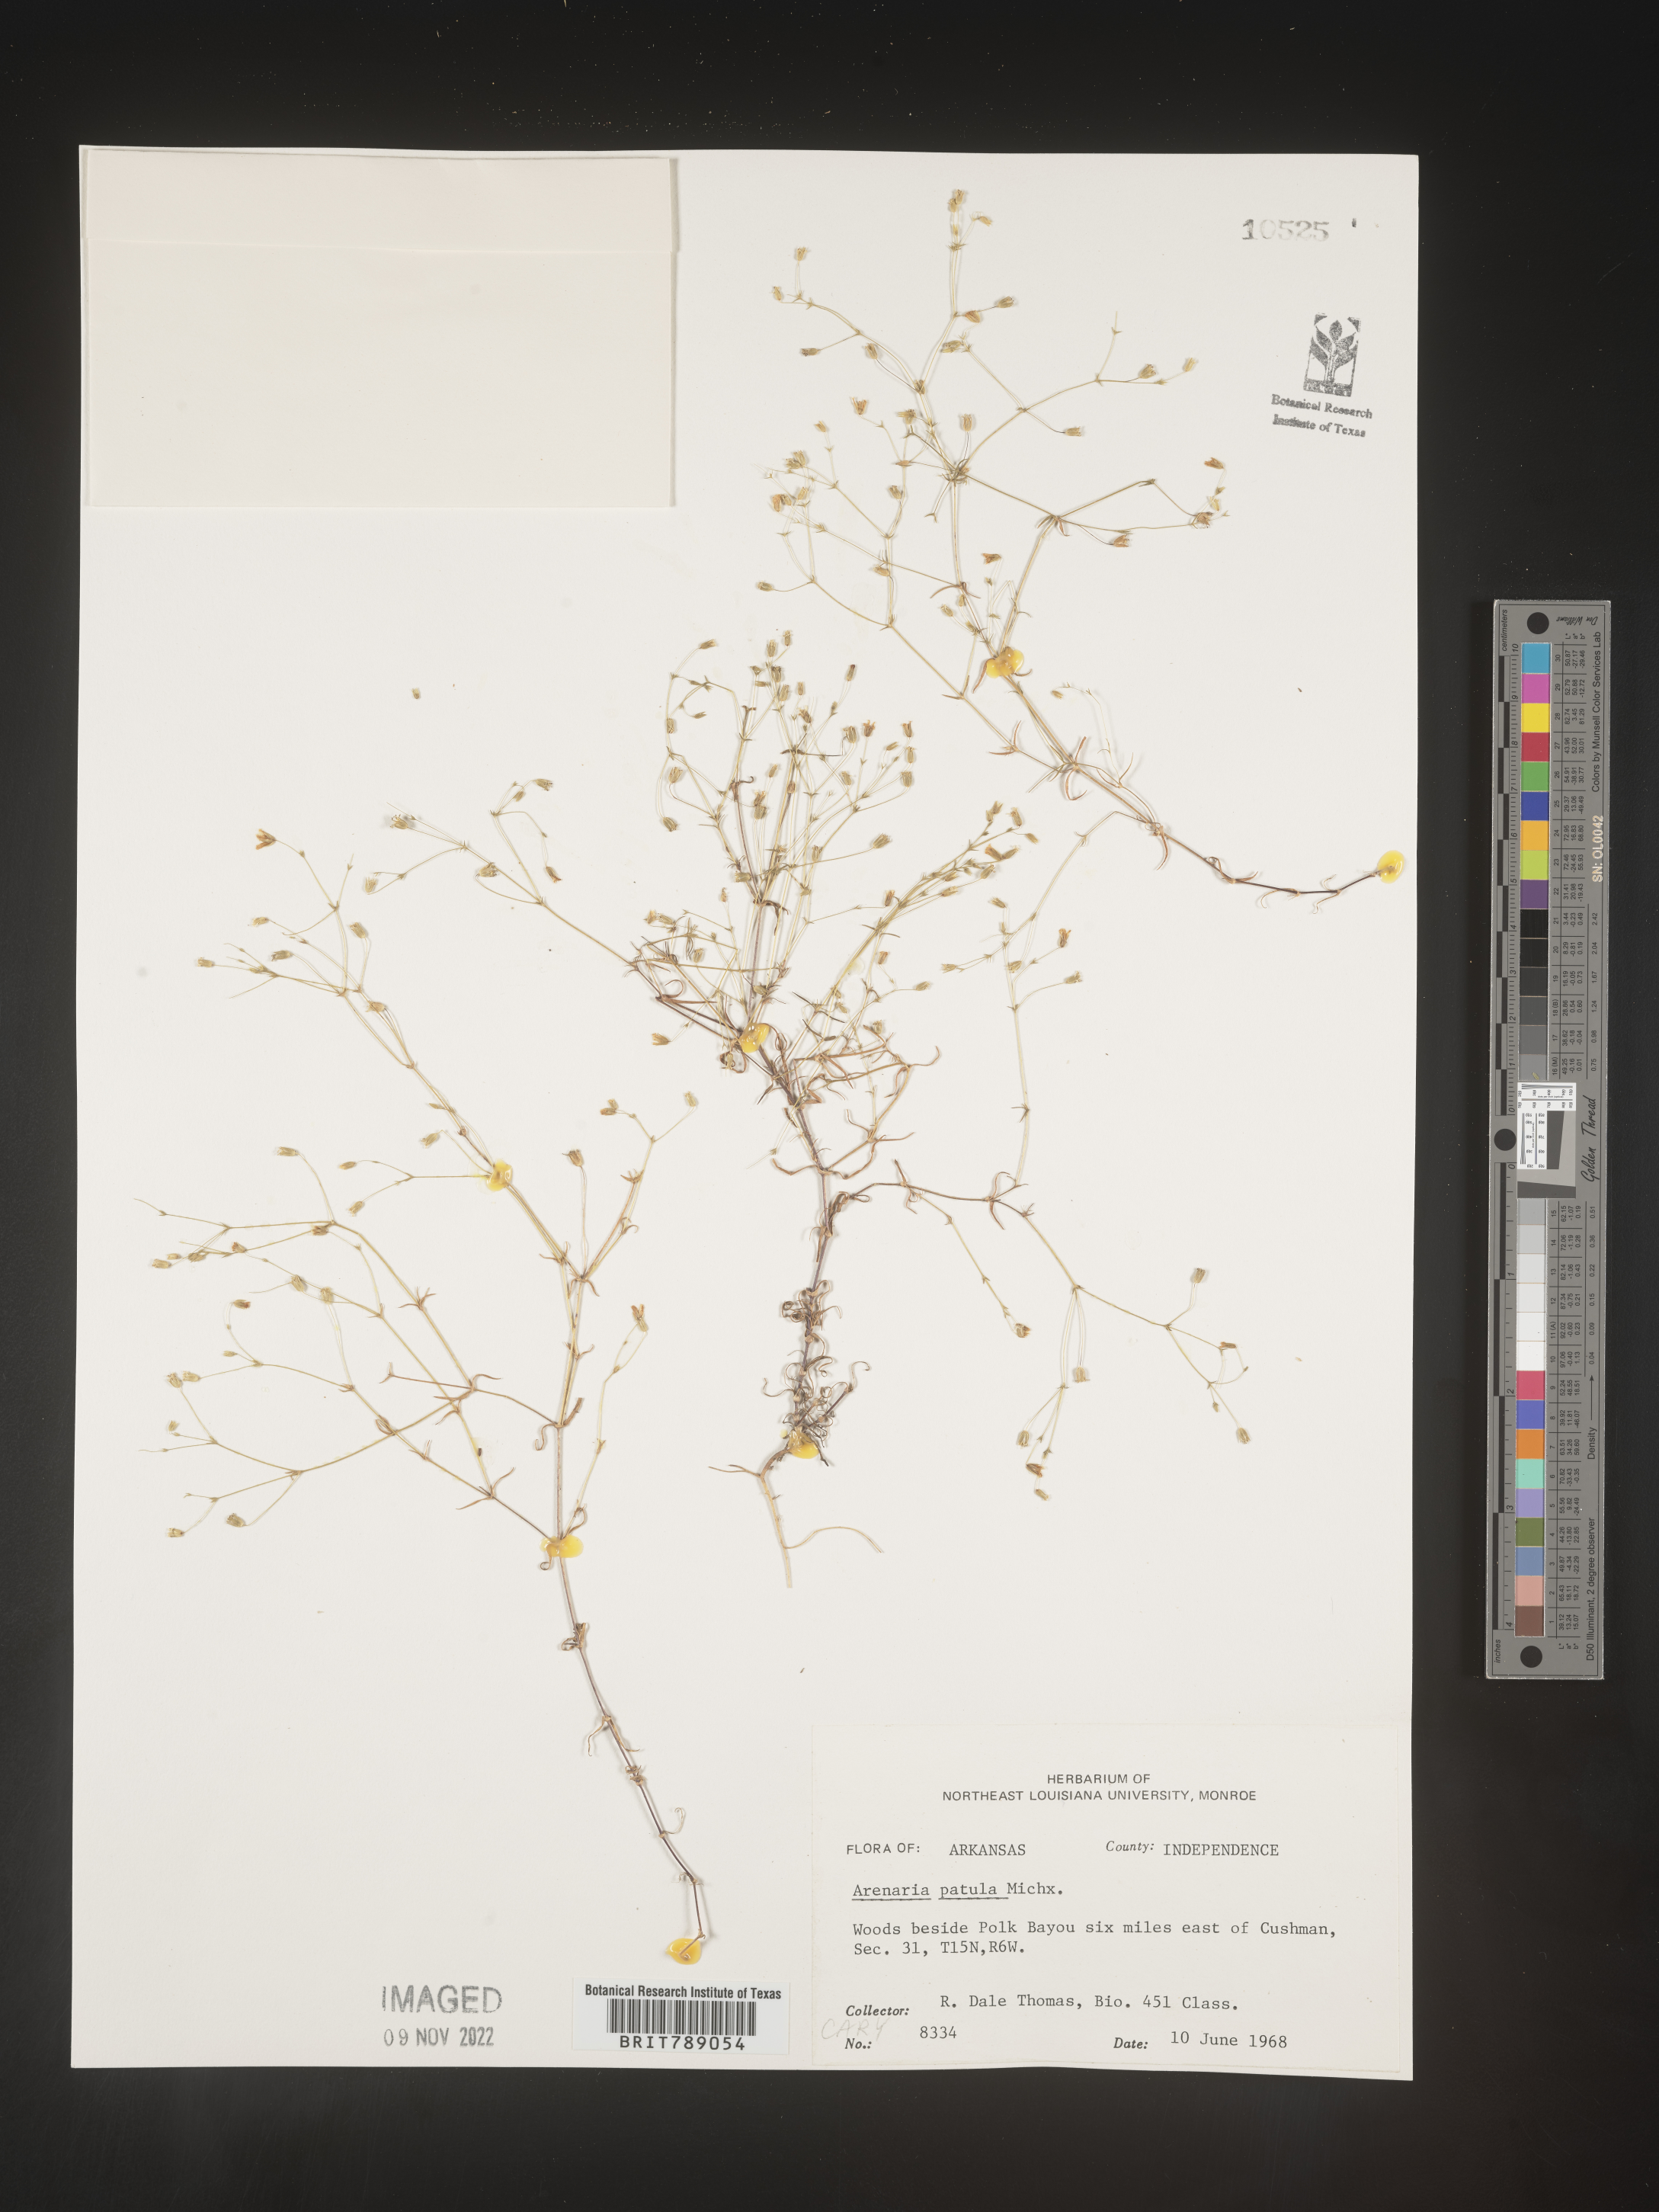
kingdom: Plantae
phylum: Tracheophyta
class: Magnoliopsida
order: Caryophyllales
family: Caryophyllaceae
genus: Mononeuria
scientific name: Mononeuria patula
